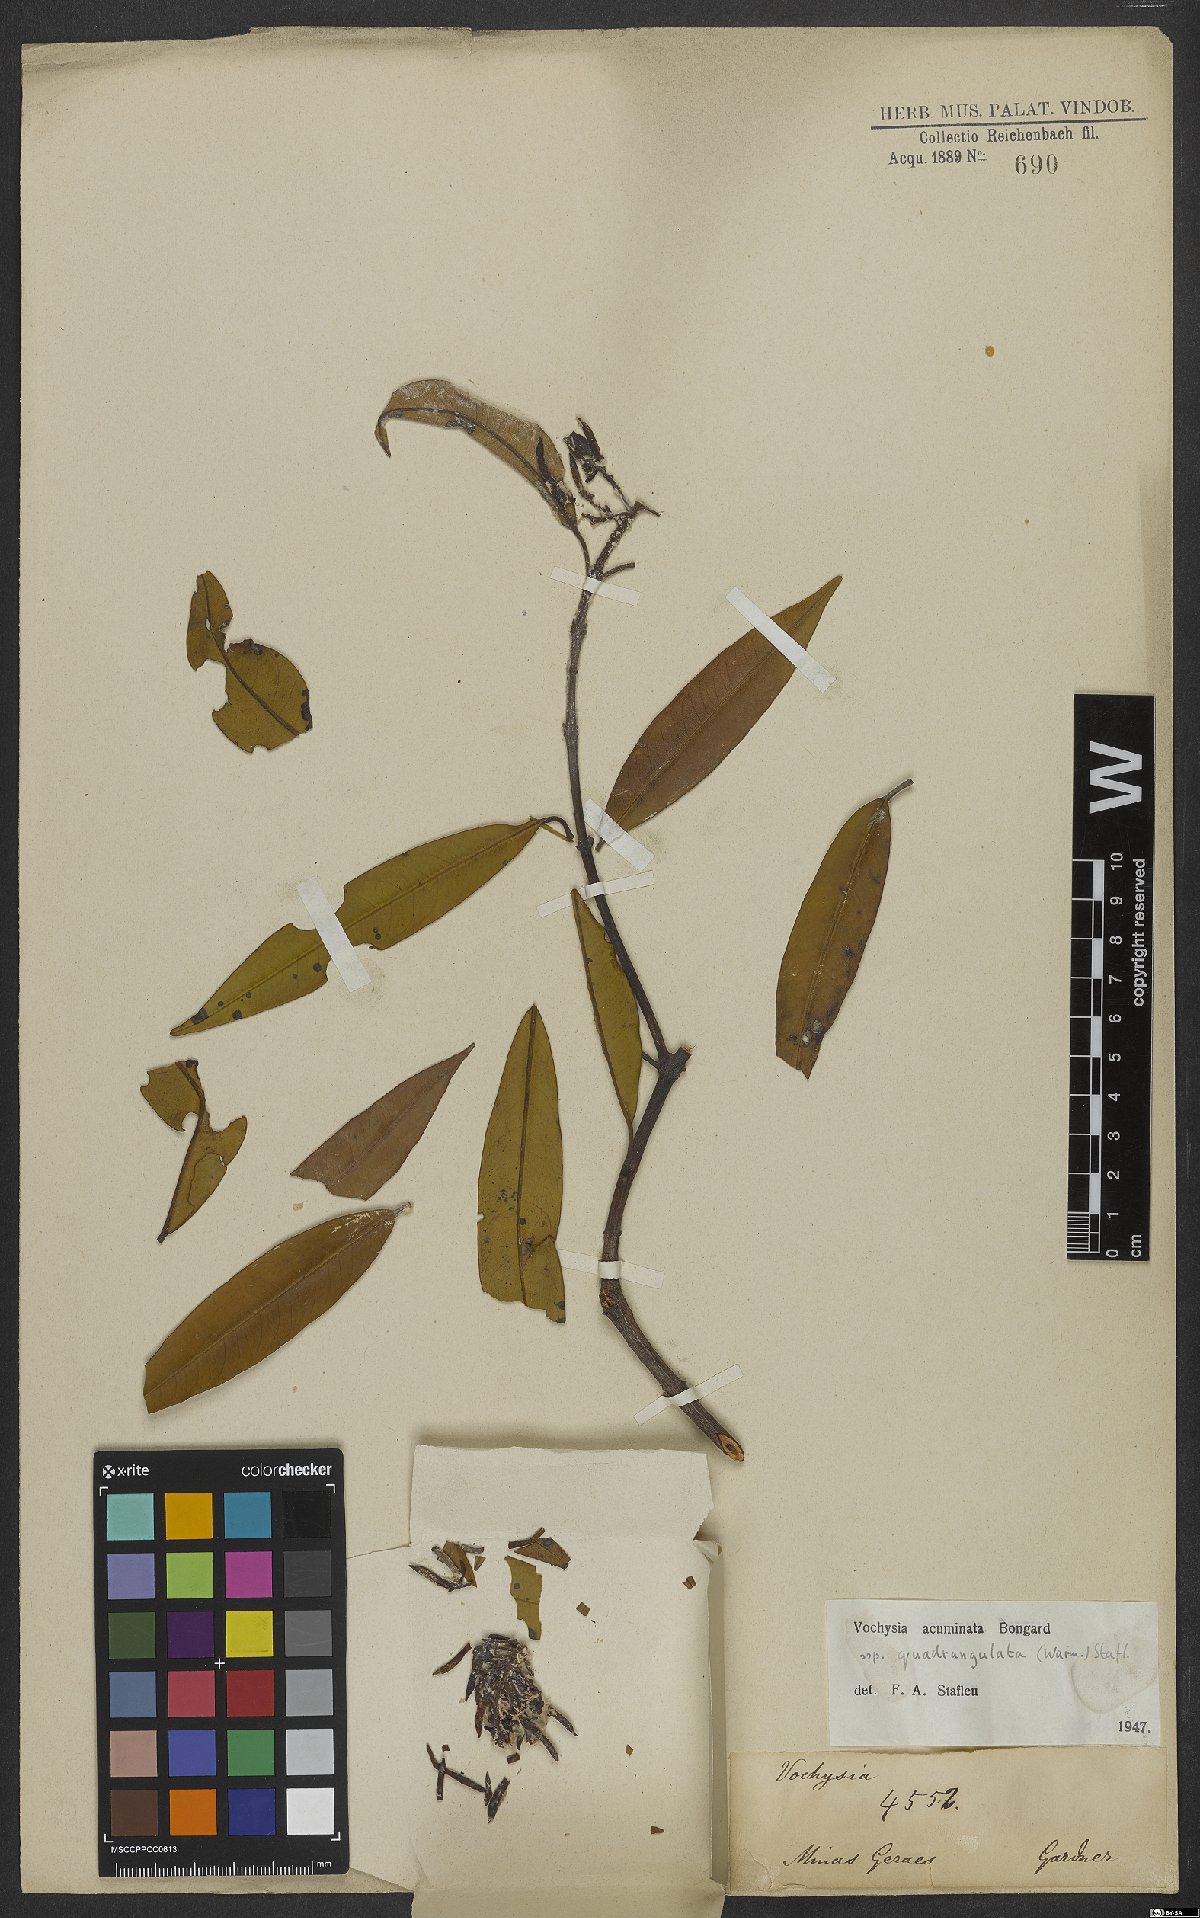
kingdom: Plantae
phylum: Tracheophyta
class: Magnoliopsida
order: Myrtales
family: Vochysiaceae
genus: Vochysia
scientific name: Vochysia acuminata
